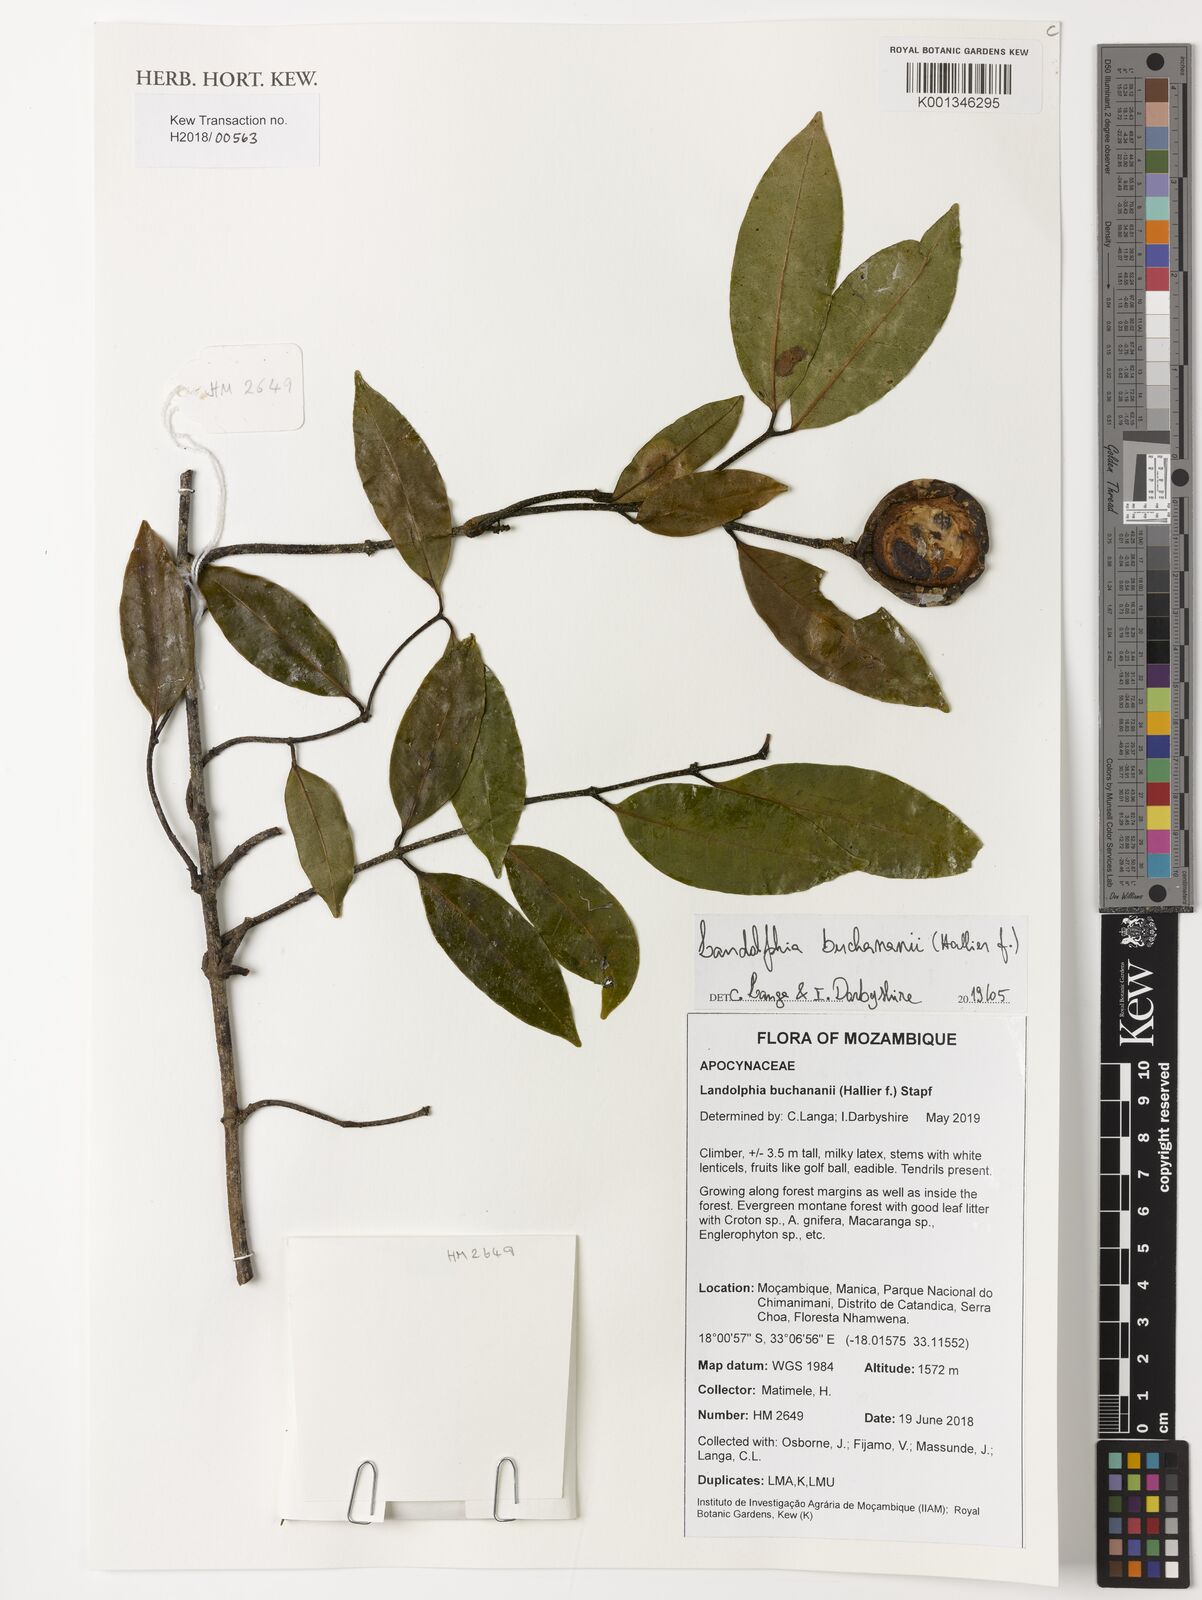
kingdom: Plantae
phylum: Tracheophyta
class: Magnoliopsida
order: Gentianales
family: Apocynaceae
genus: Landolphia
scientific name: Landolphia buchananii
